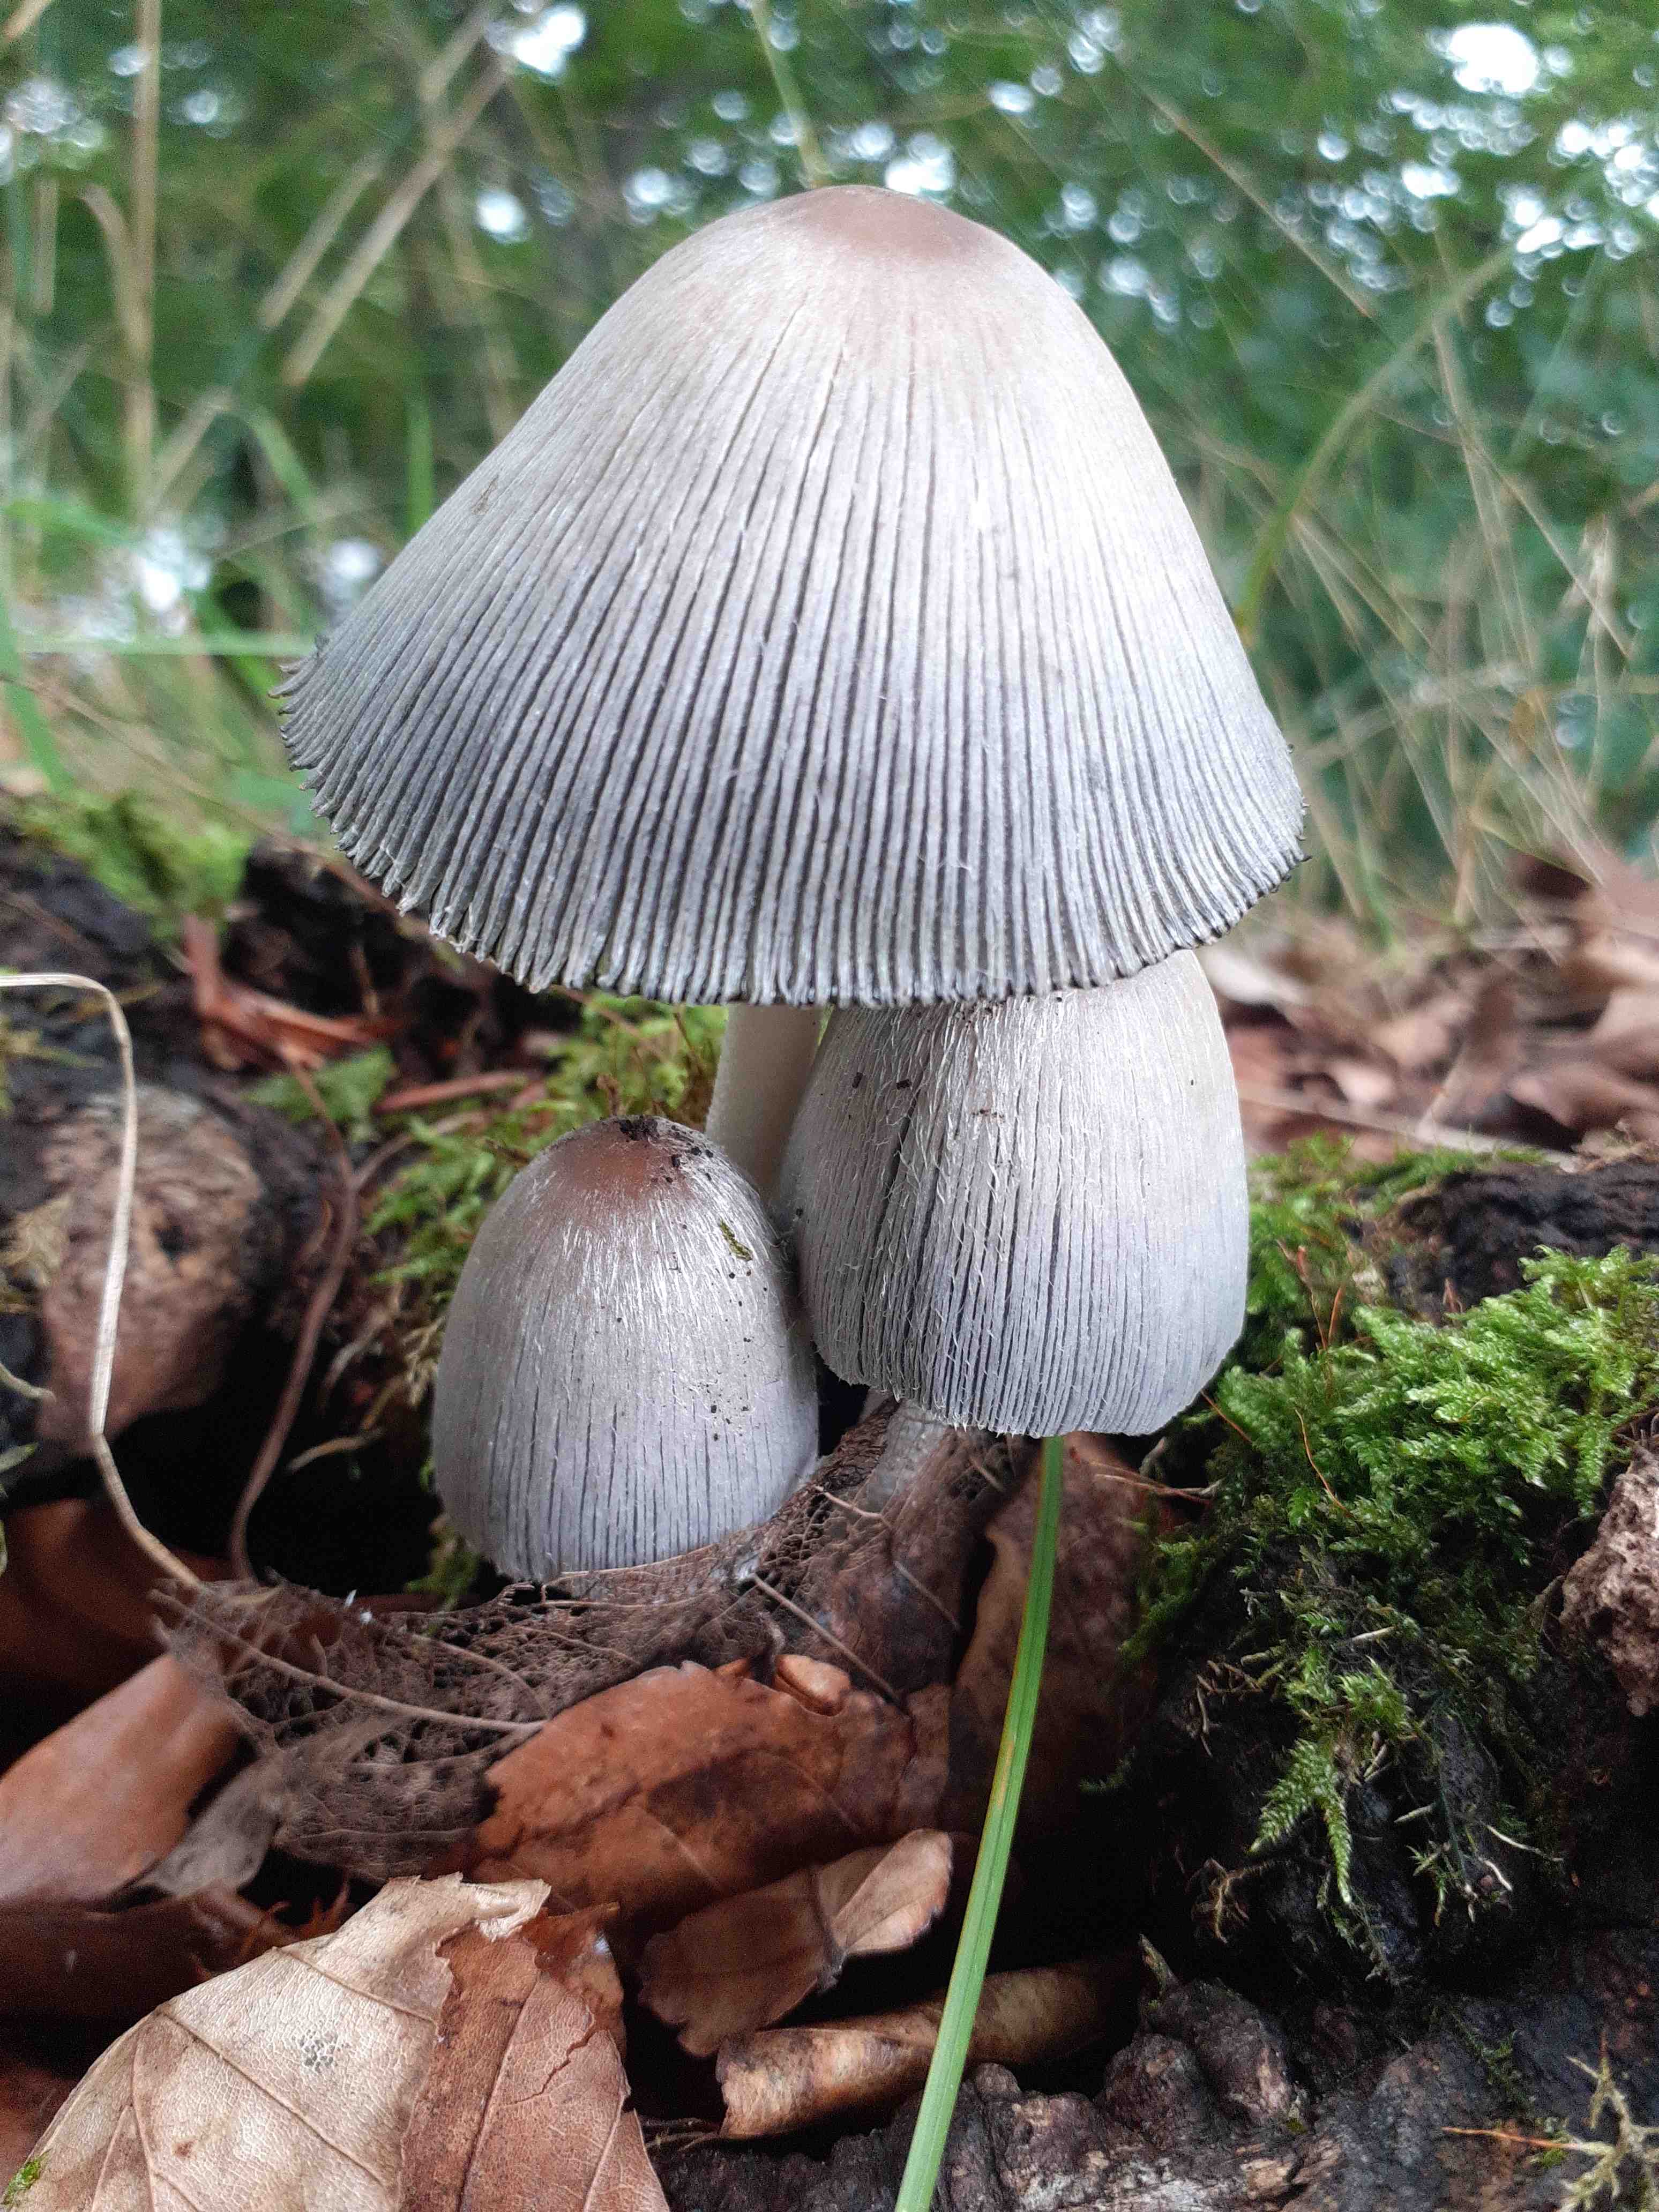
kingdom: Fungi
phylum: Basidiomycota
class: Agaricomycetes
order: Agaricales
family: Psathyrellaceae
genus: Coprinopsis
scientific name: Coprinopsis insignis
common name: stor blækhat
